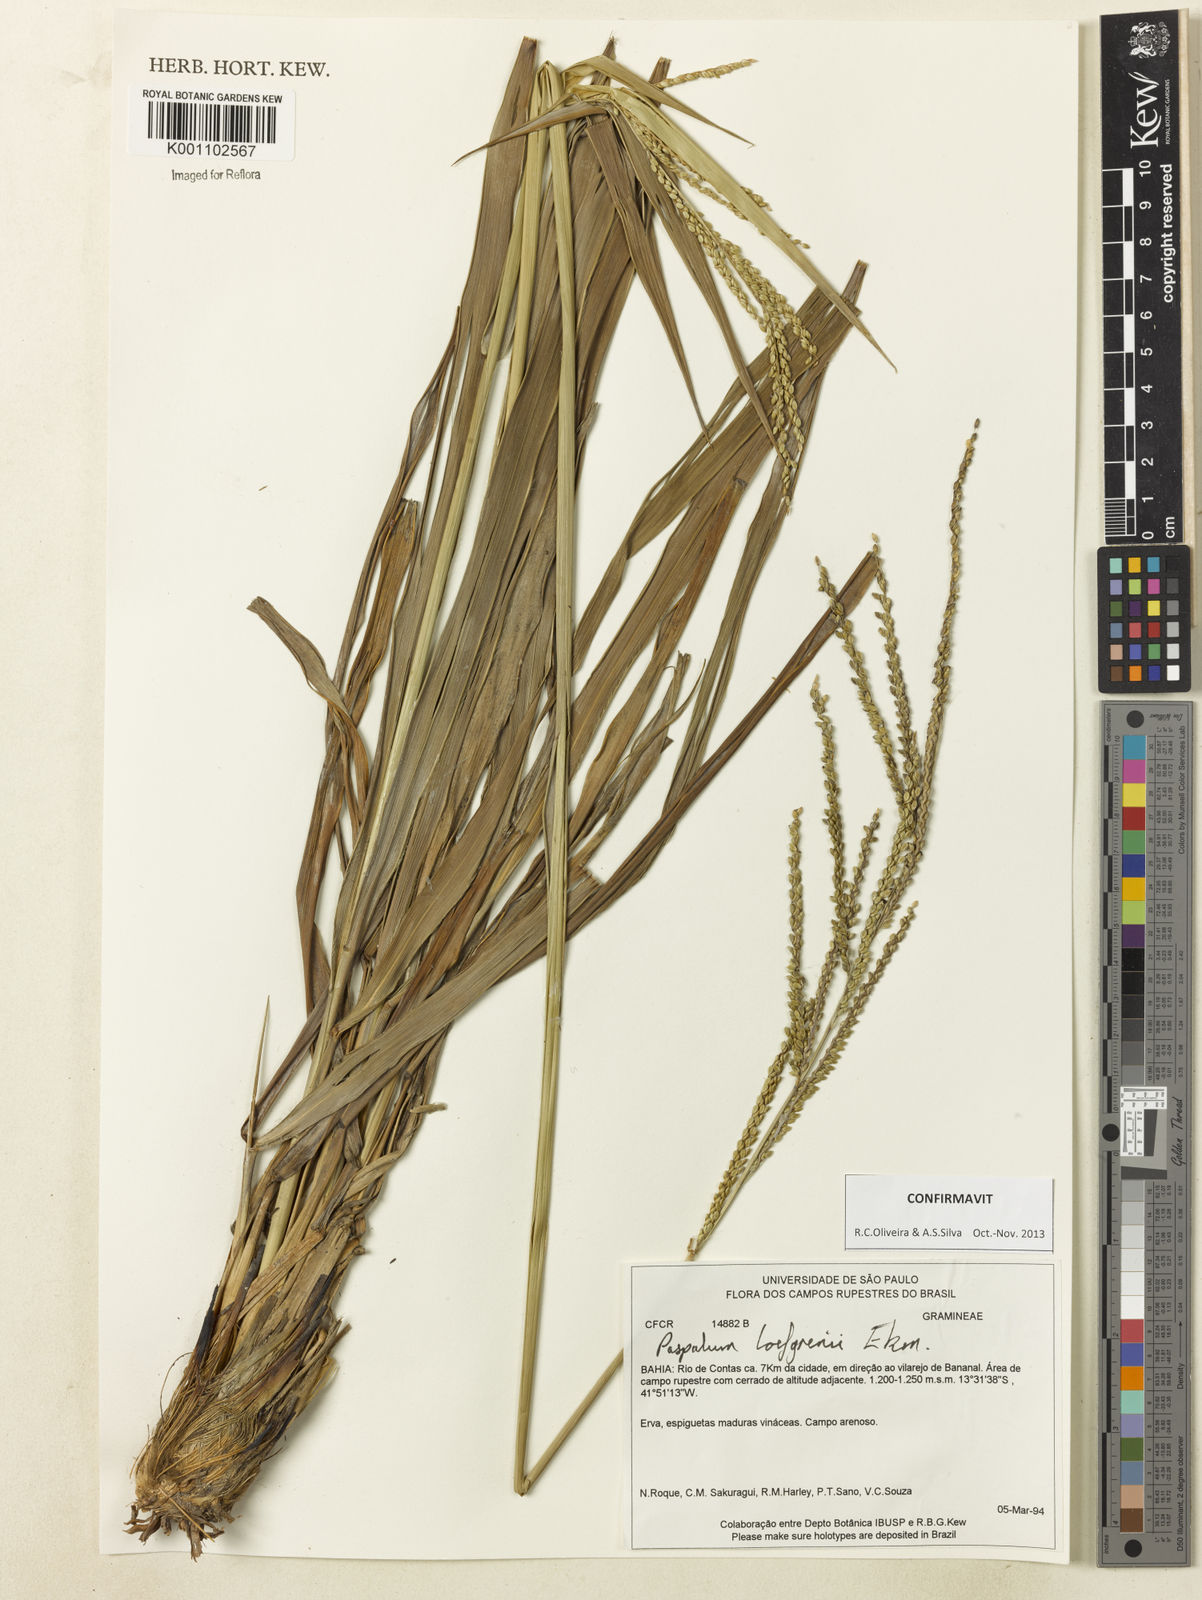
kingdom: Plantae
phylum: Tracheophyta
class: Liliopsida
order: Poales
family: Poaceae
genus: Paspalum
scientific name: Paspalum loefgrenii
